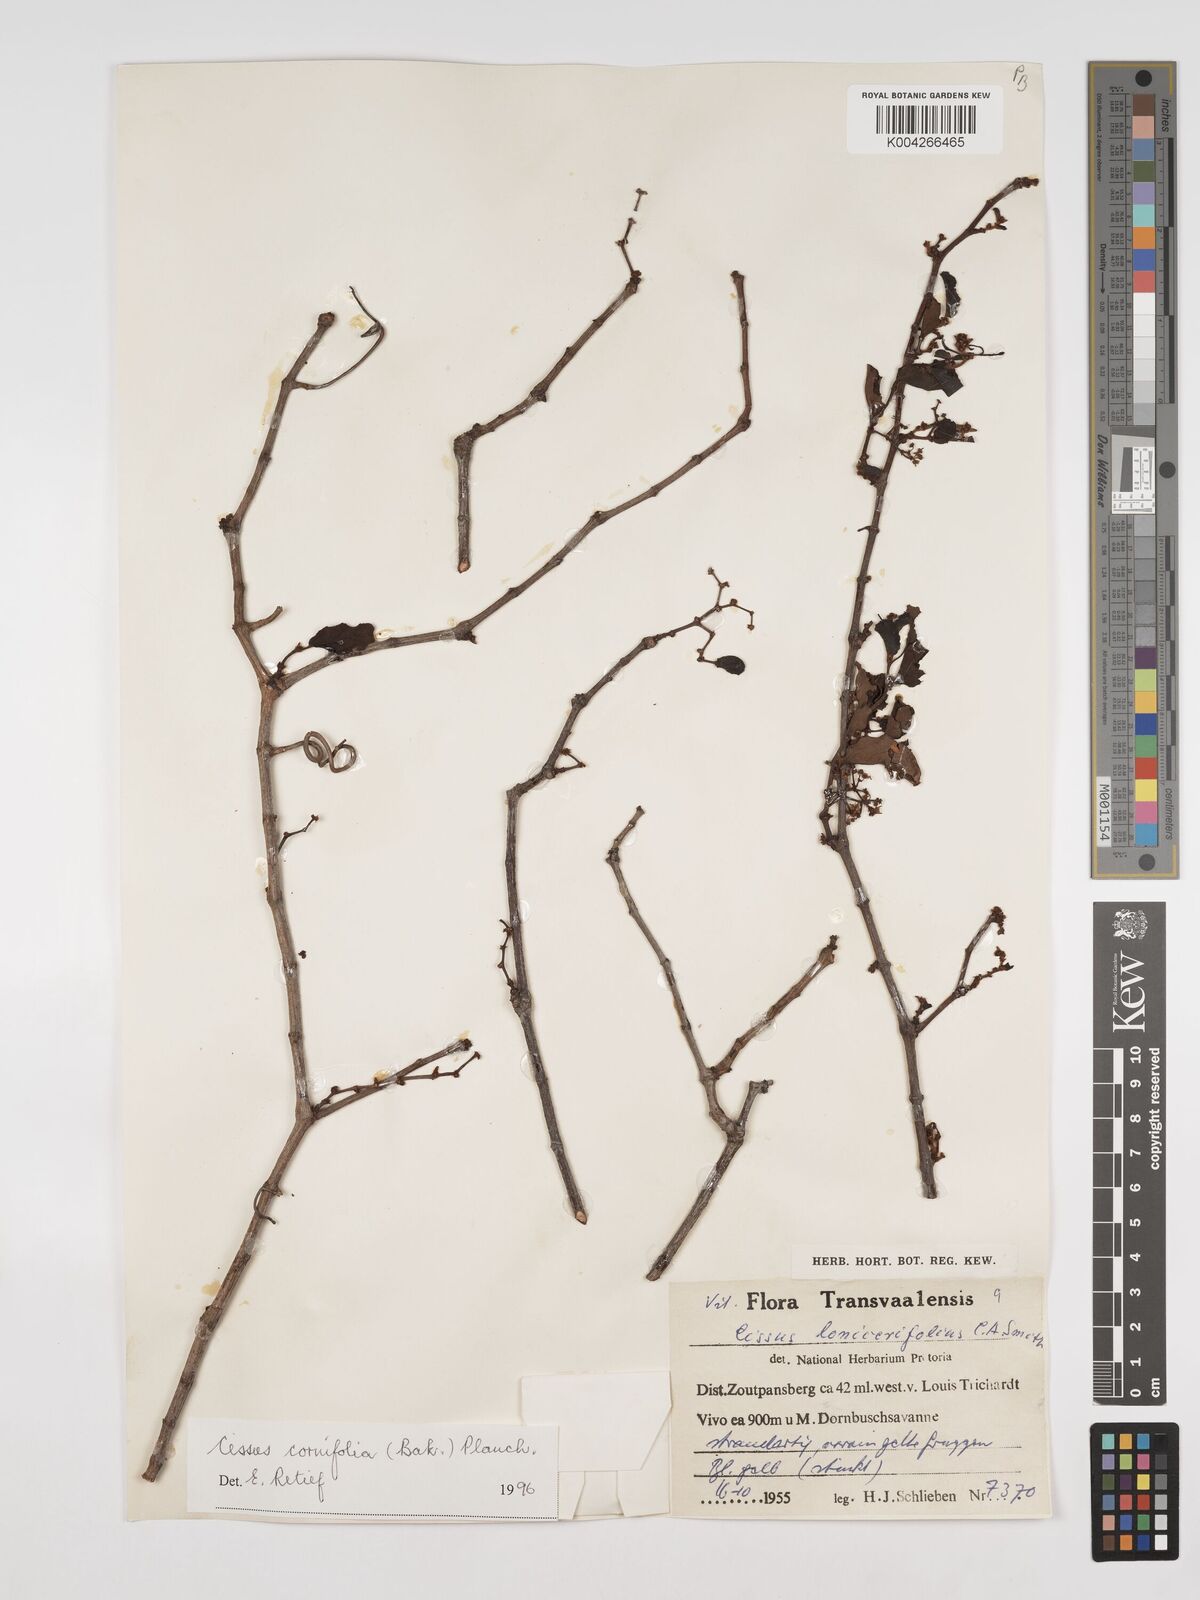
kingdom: Plantae
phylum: Tracheophyta
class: Magnoliopsida
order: Vitales
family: Vitaceae
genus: Cissus
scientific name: Cissus cornifolia
